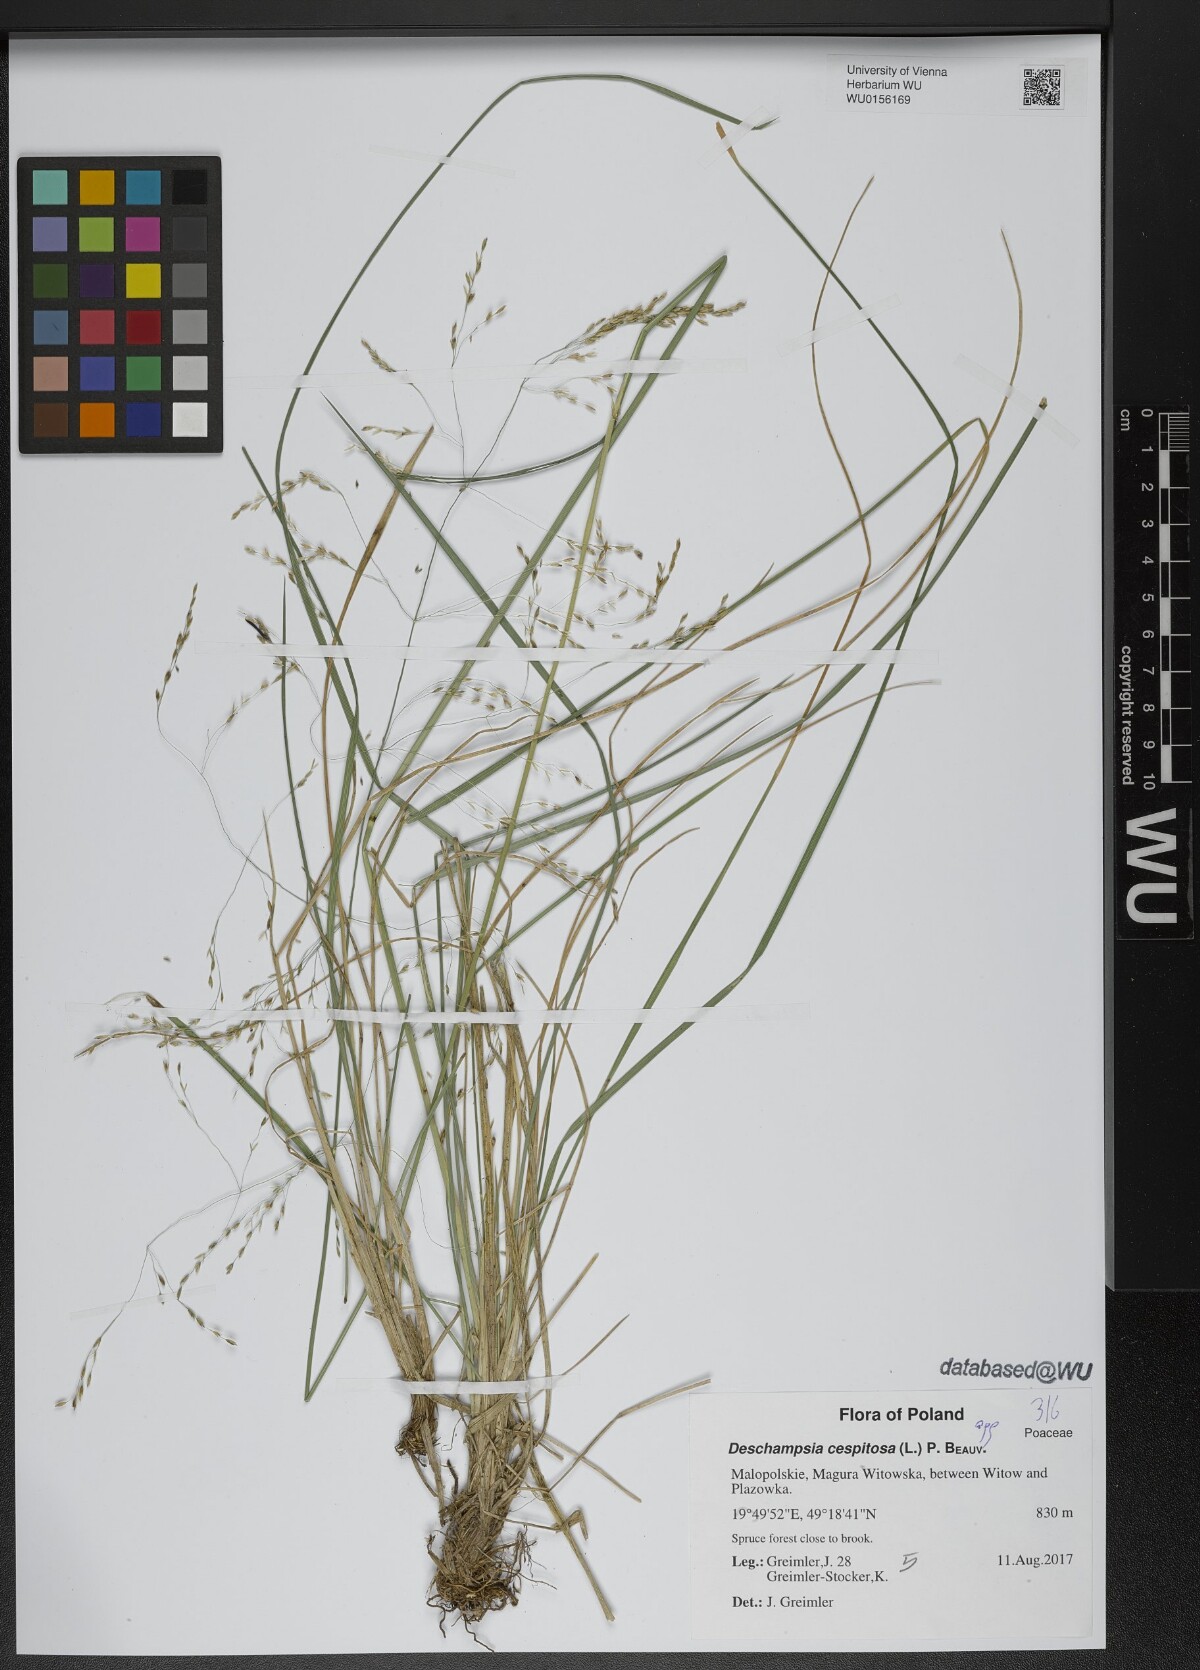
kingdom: Plantae
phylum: Tracheophyta
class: Liliopsida
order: Poales
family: Poaceae
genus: Deschampsia
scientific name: Deschampsia cespitosa
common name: Tufted hair-grass
